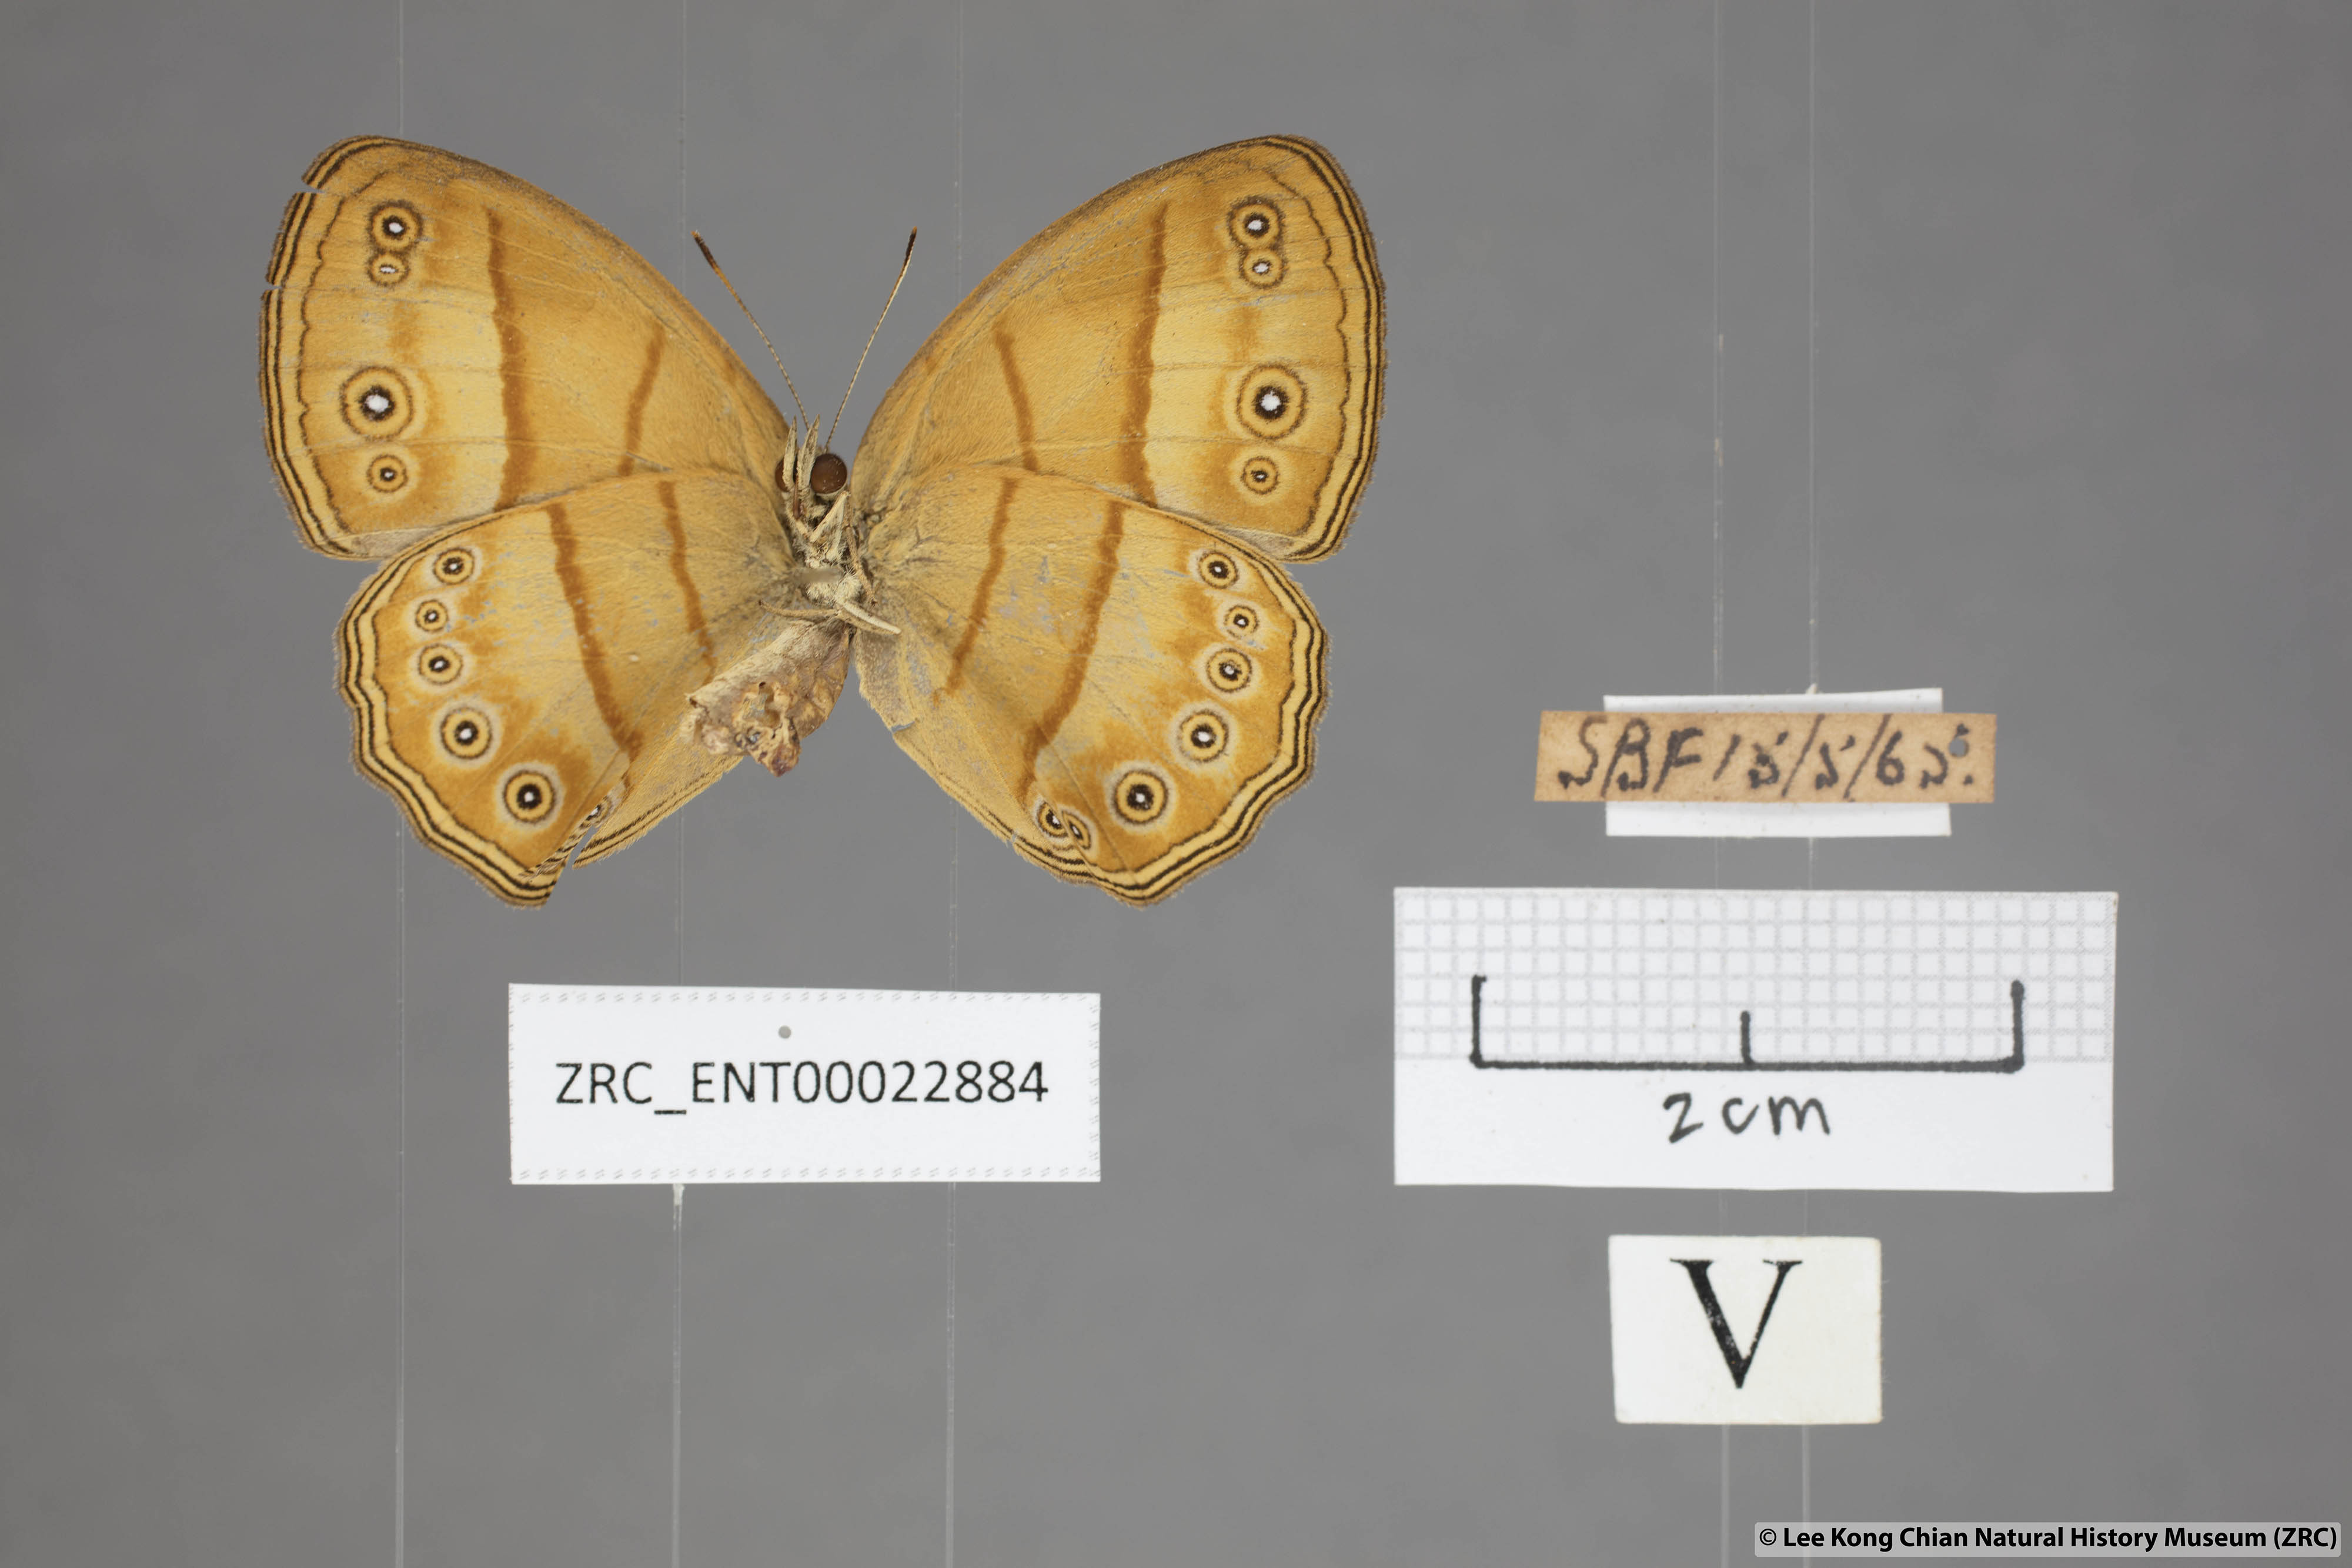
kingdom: Animalia
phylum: Arthropoda
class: Insecta
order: Lepidoptera
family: Nymphalidae
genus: Mycalesis
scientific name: Mycalesis anapita
